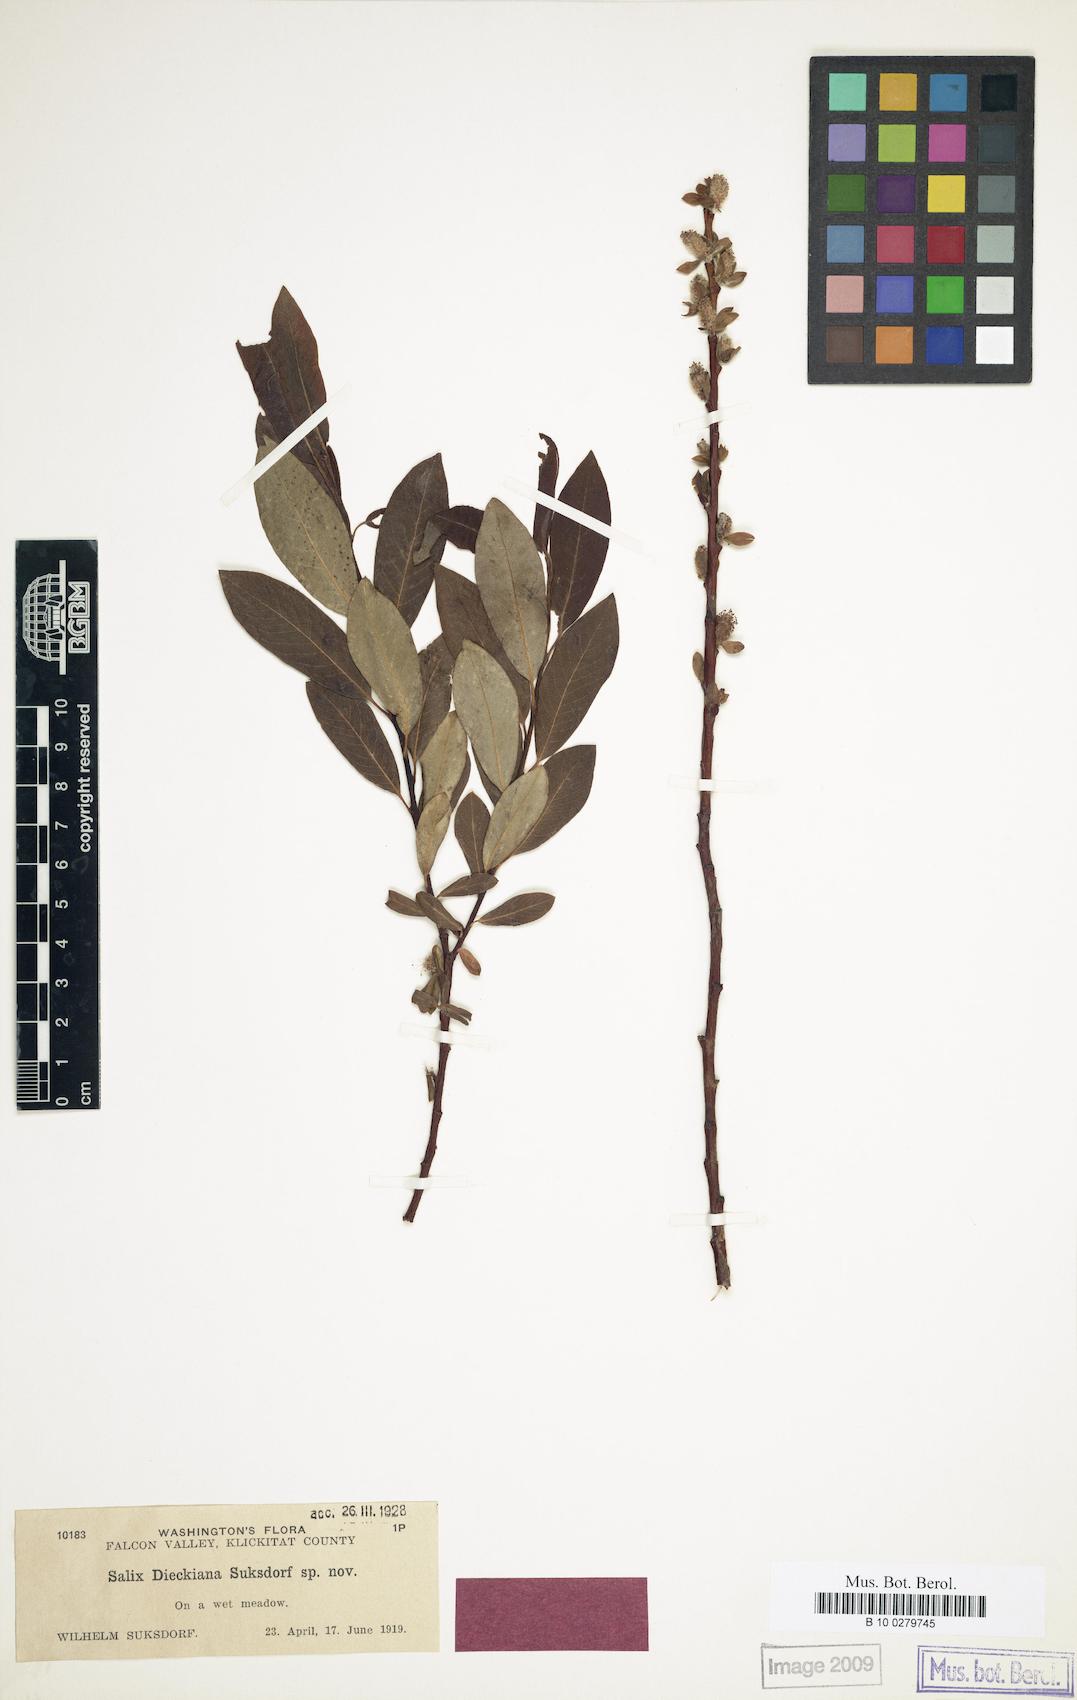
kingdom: Plantae
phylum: Tracheophyta
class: Magnoliopsida
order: Malpighiales
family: Salicaceae
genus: Salix
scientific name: Salix dieckiana
